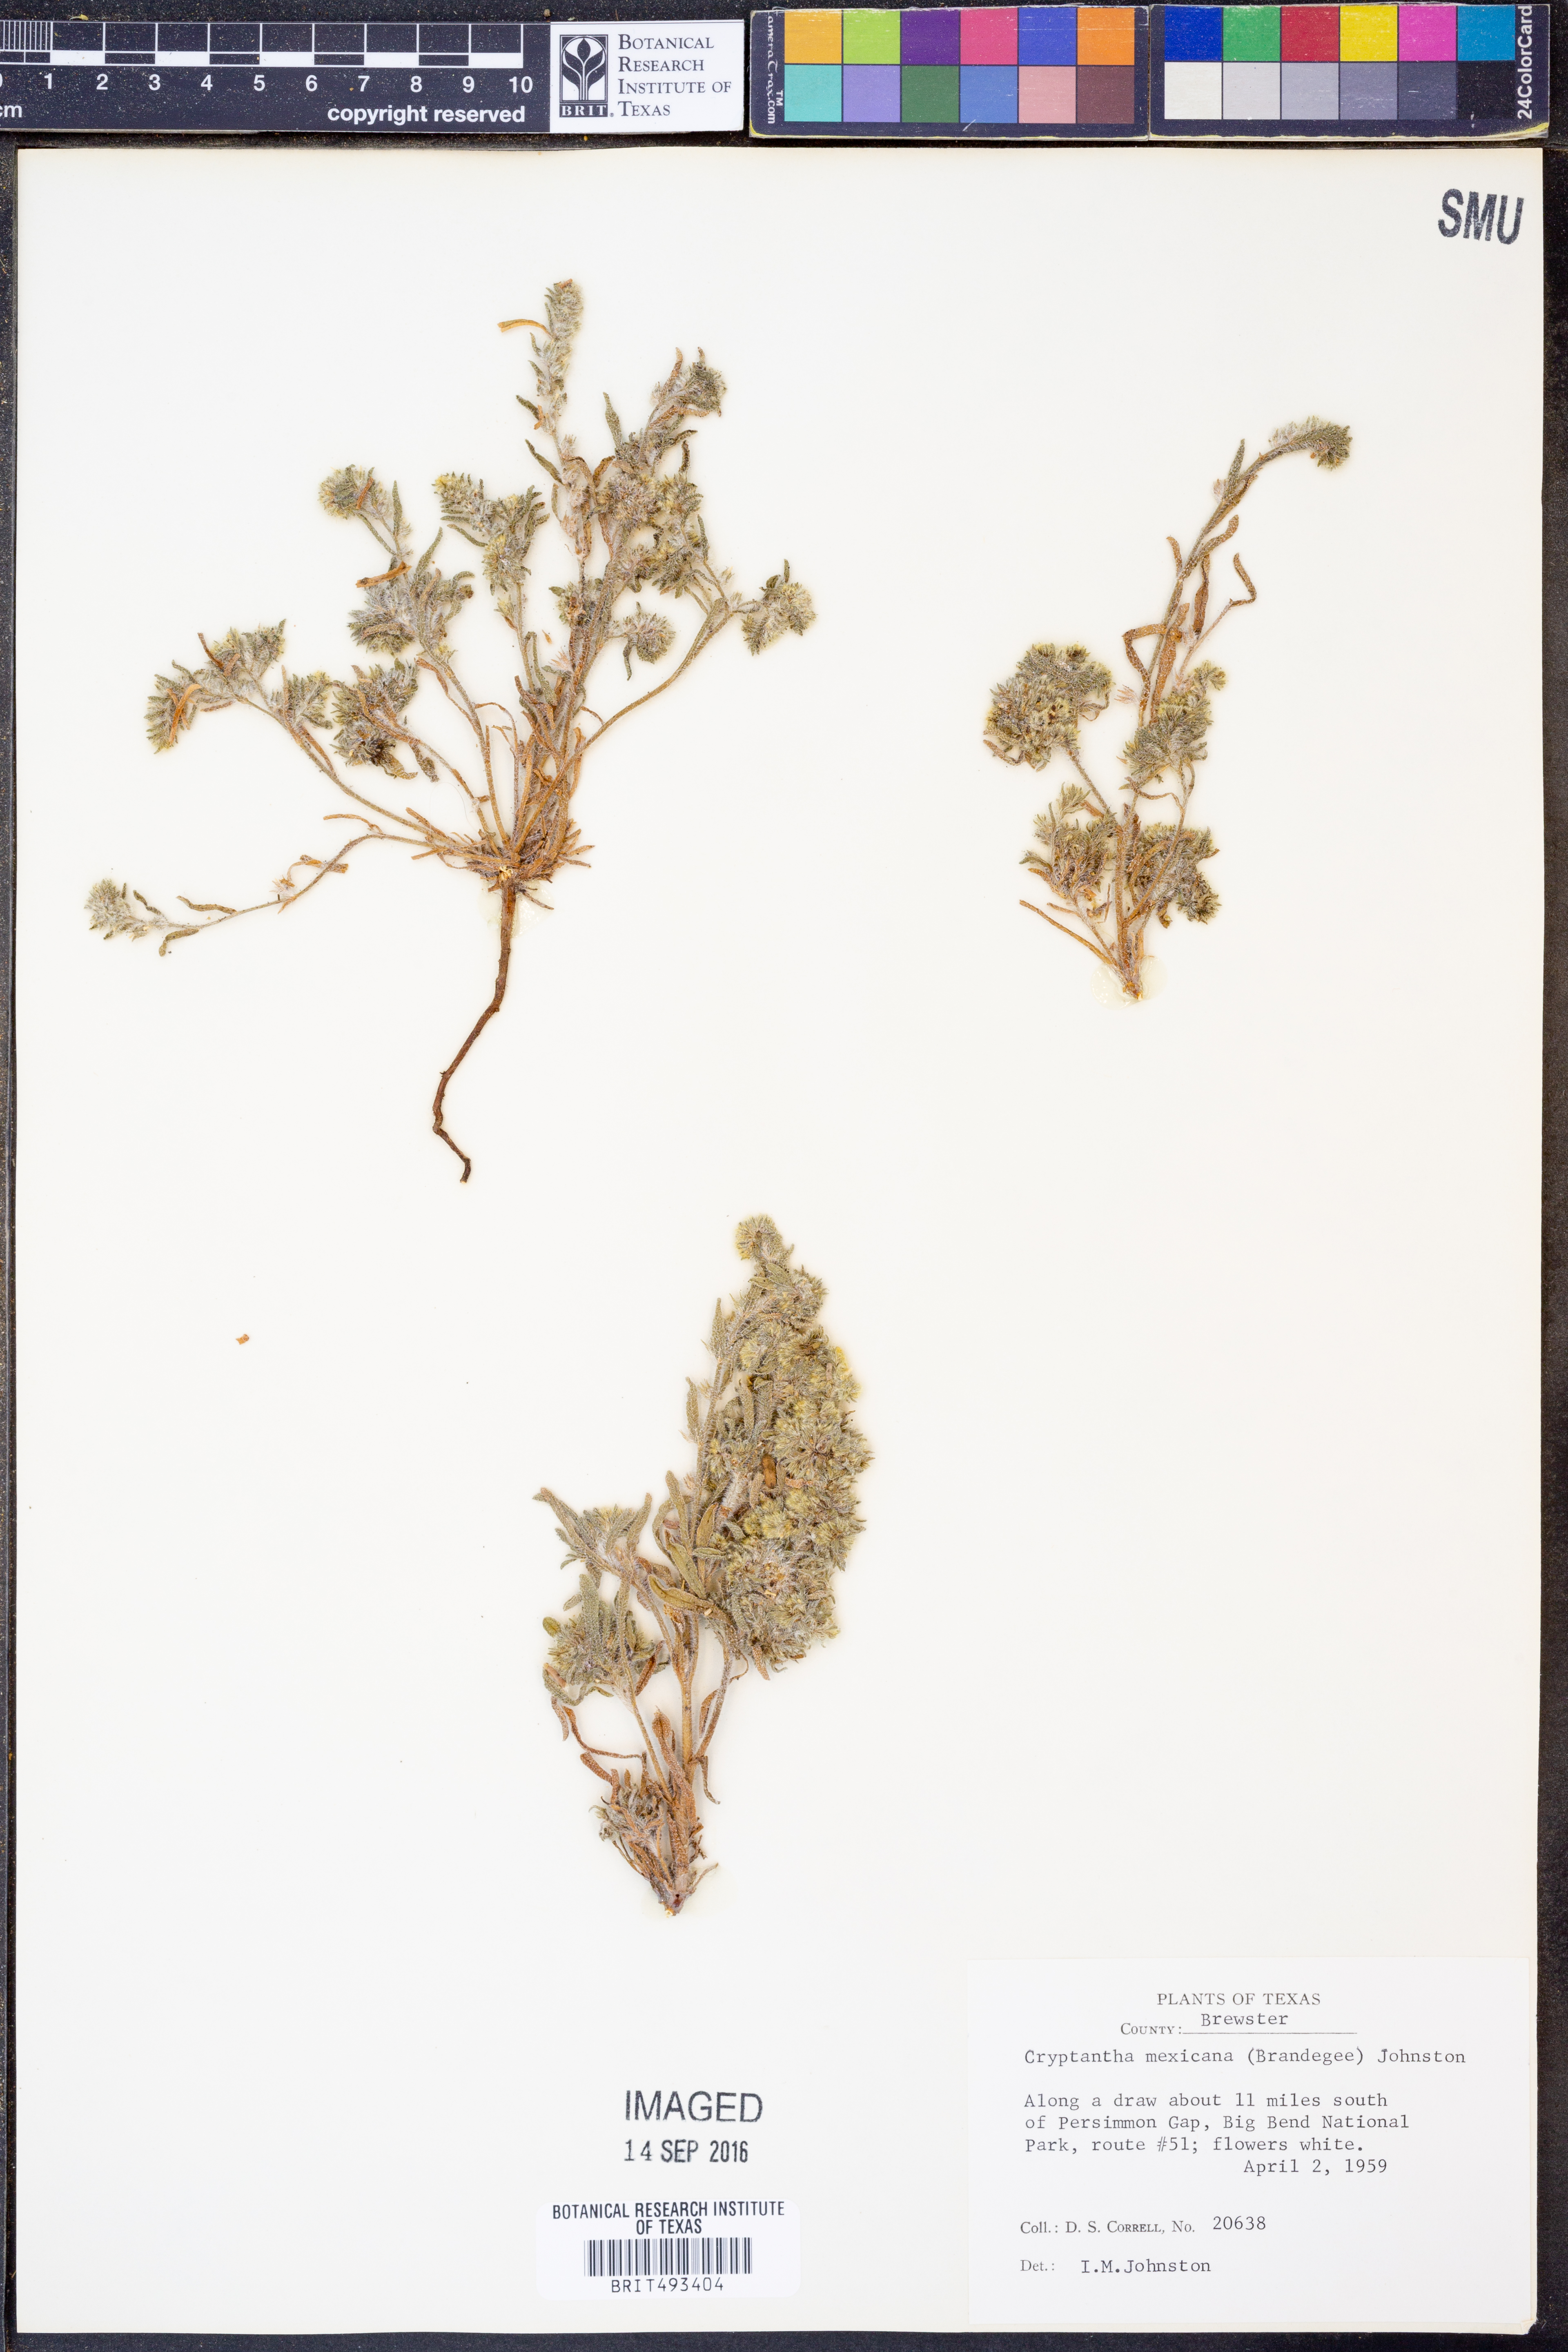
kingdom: Plantae
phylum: Tracheophyta
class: Magnoliopsida
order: Boraginales
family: Boraginaceae
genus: Johnstonella
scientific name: Johnstonella mexicana
